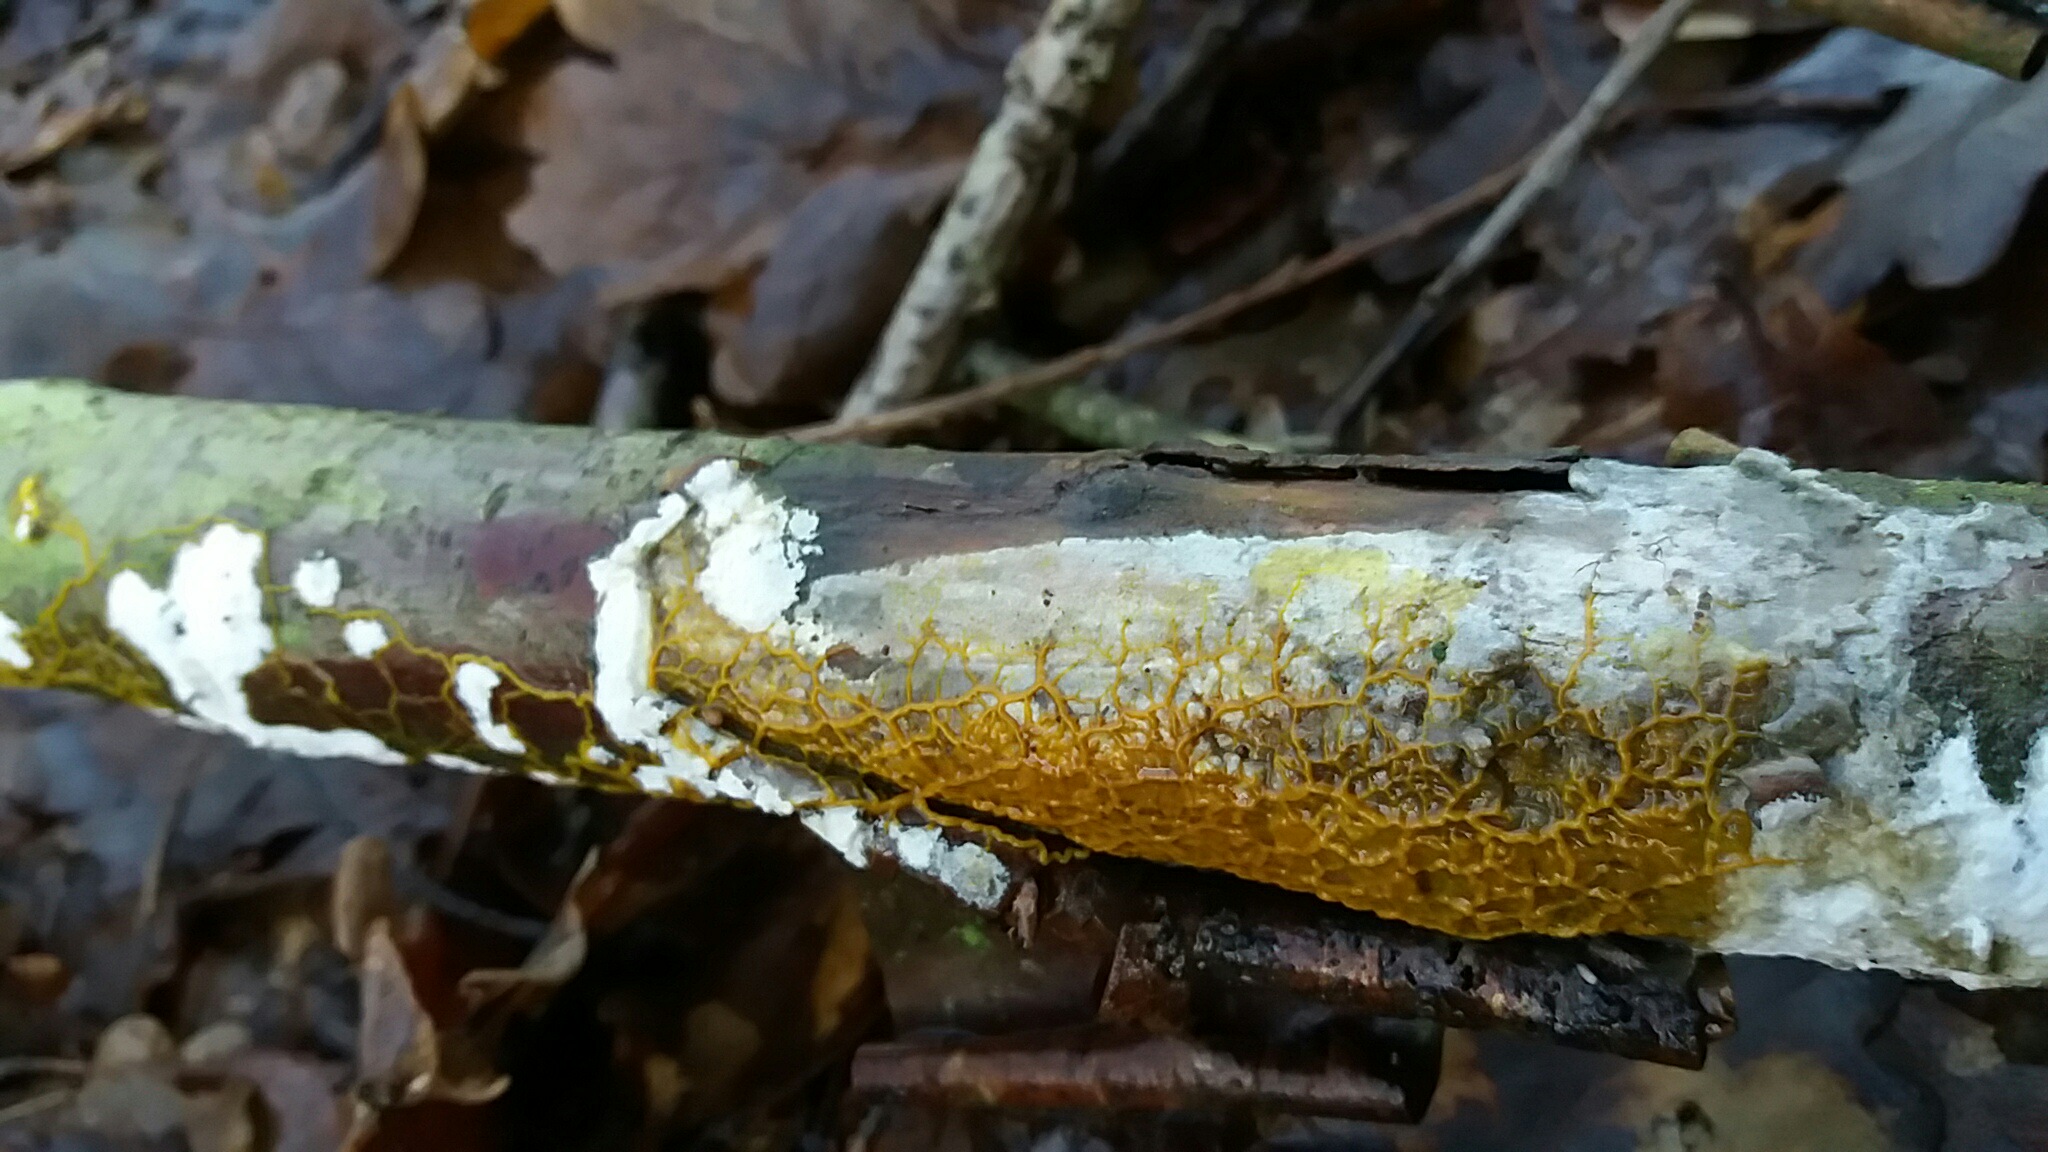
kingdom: Fungi
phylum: Basidiomycota
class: Agaricomycetes
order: Hymenochaetales
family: Schizoporaceae
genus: Xylodon
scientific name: Xylodon radula
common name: grovtandet kalkskind
